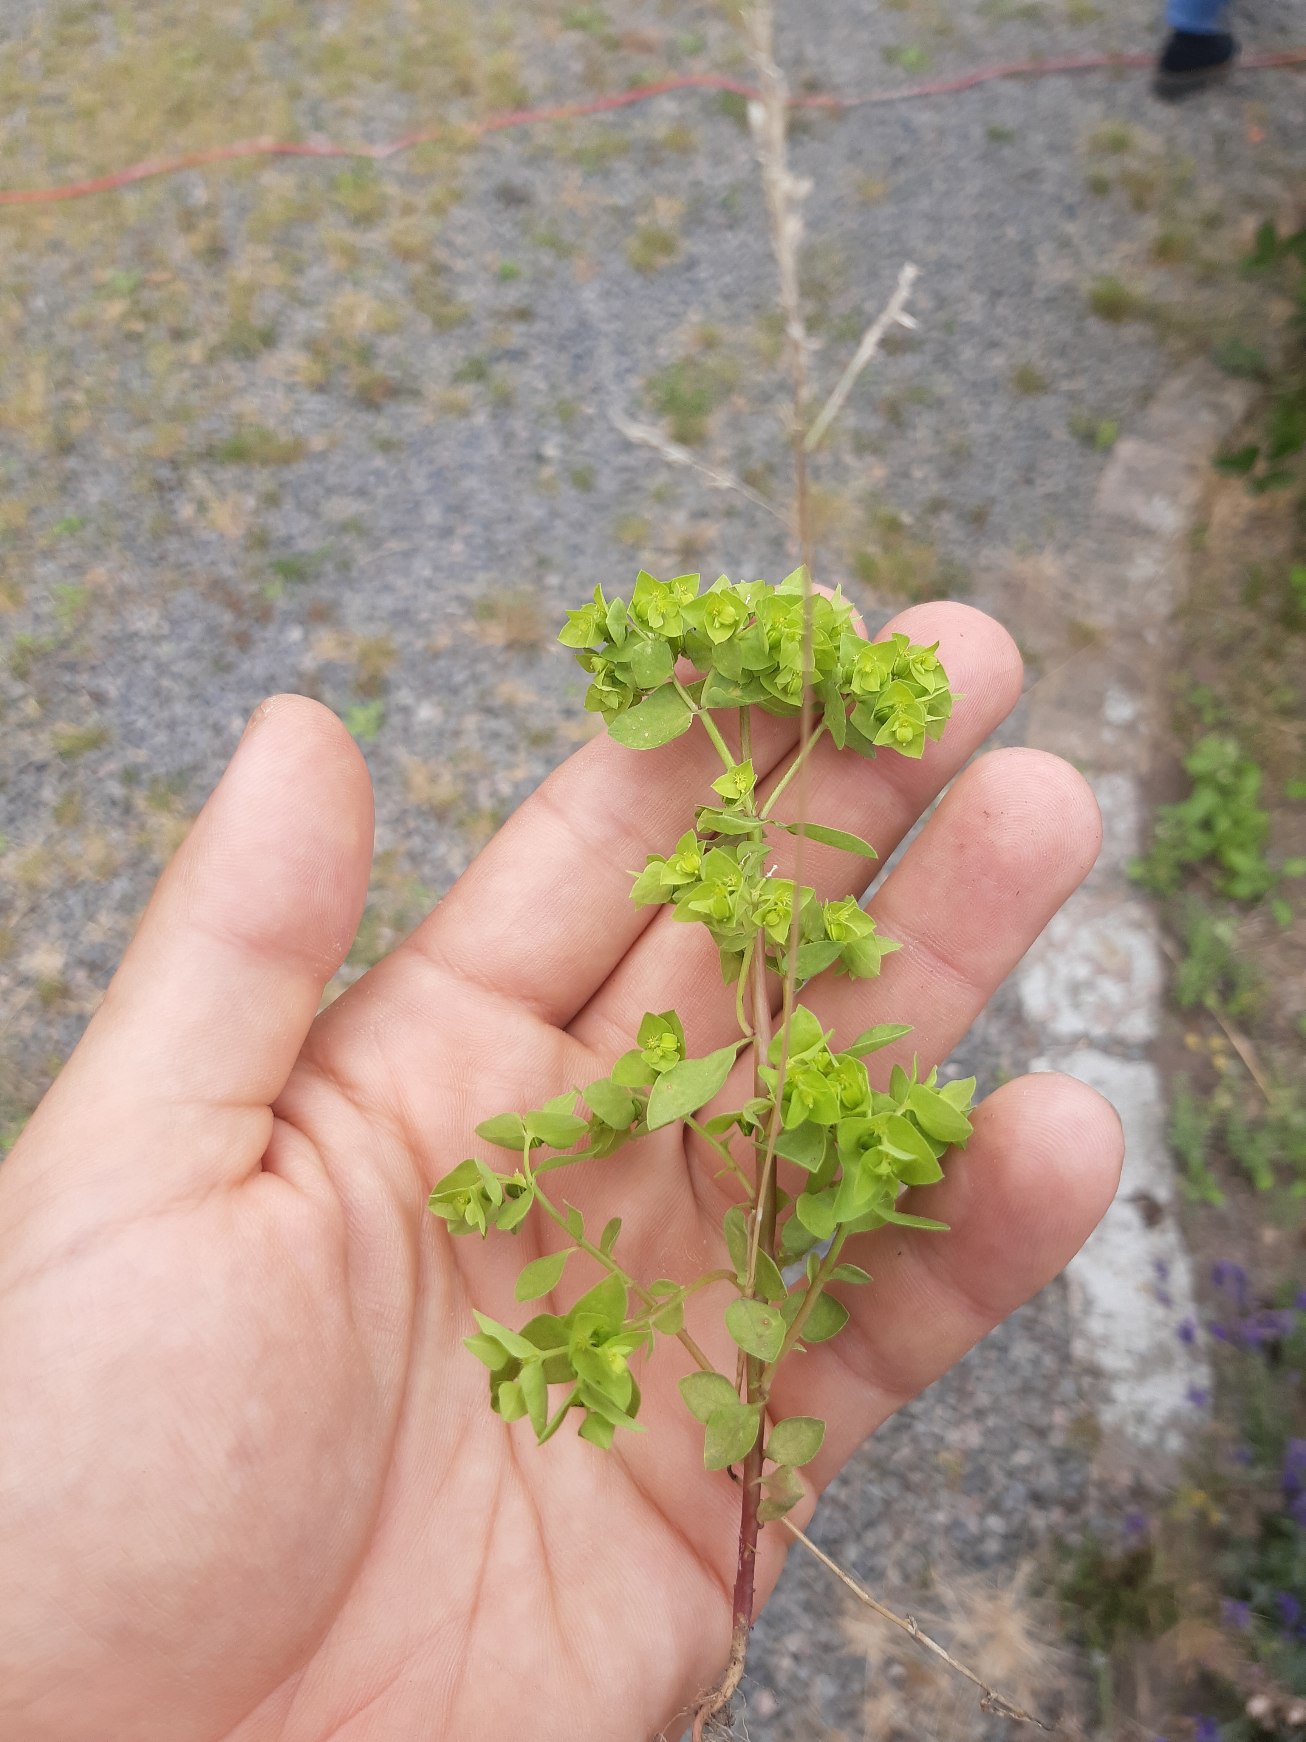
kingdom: Plantae
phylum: Tracheophyta
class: Magnoliopsida
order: Malpighiales
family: Euphorbiaceae
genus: Euphorbia
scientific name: Euphorbia peplus
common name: Gaffel-vortemælk
